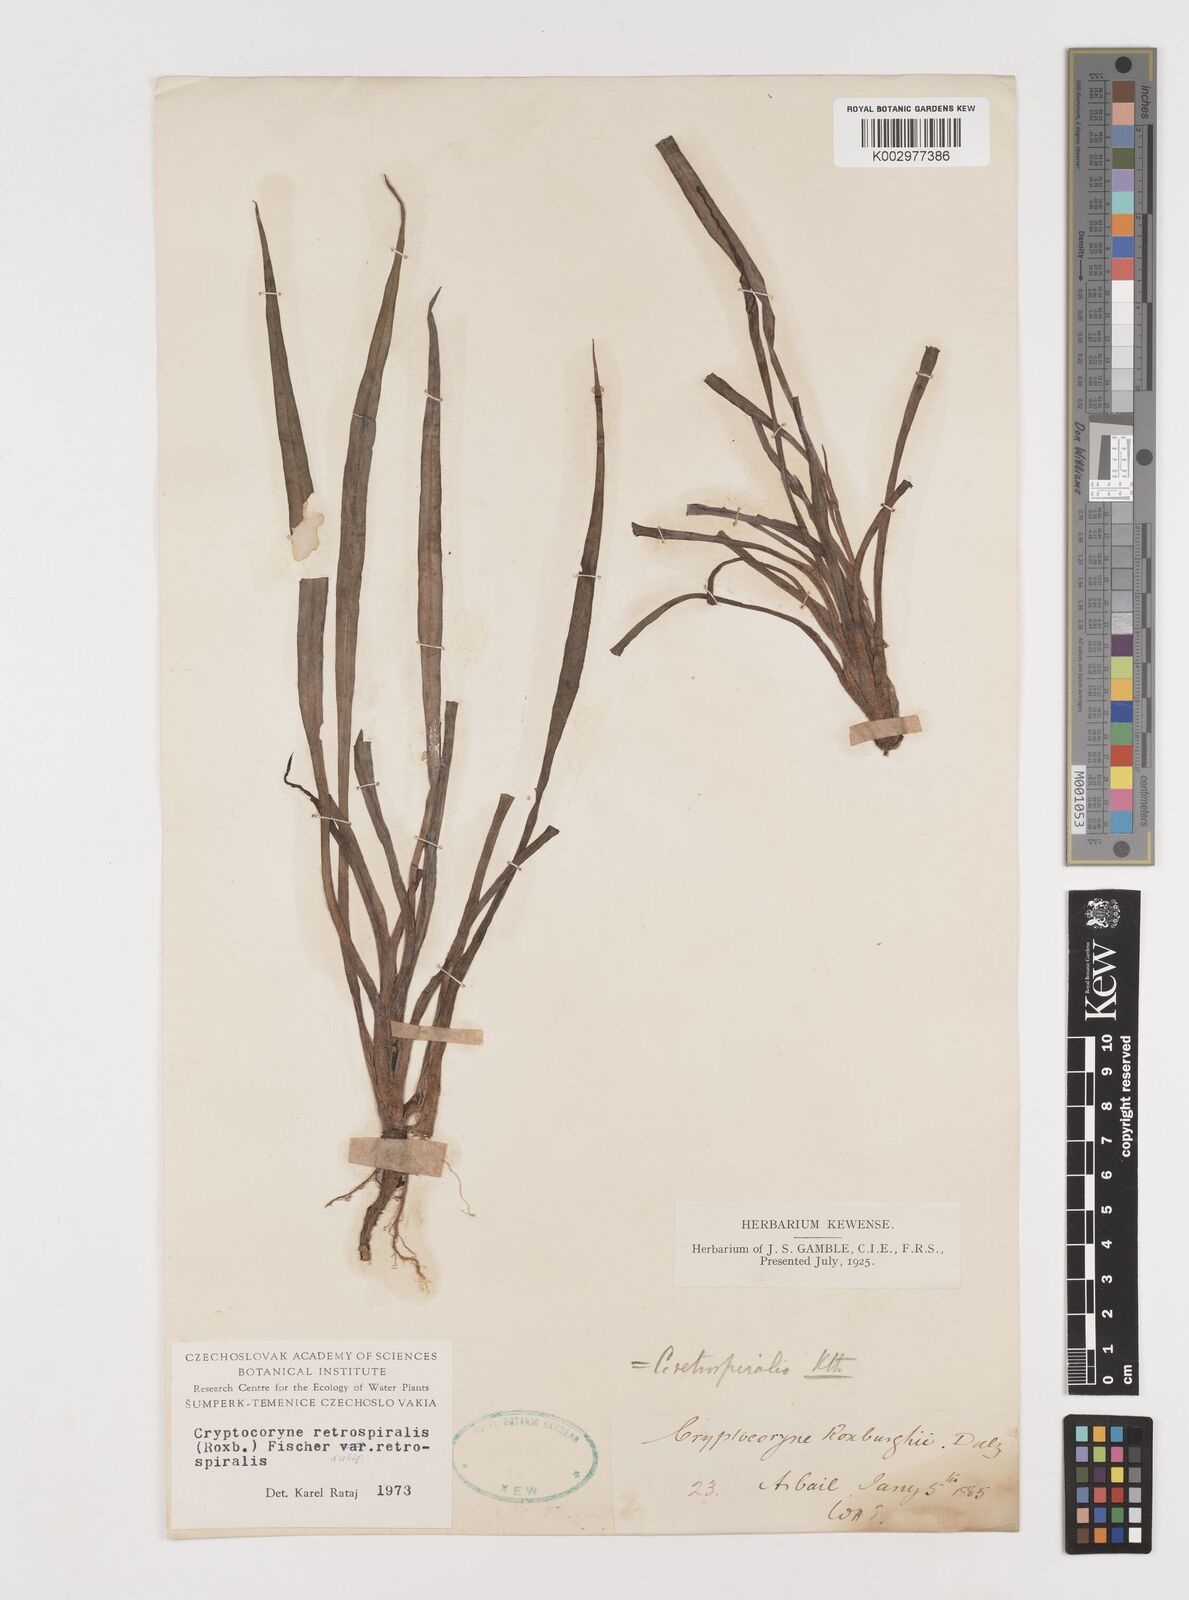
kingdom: Plantae
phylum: Tracheophyta
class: Liliopsida
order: Alismatales
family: Araceae
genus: Cryptocoryne
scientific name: Cryptocoryne retrospiralis
